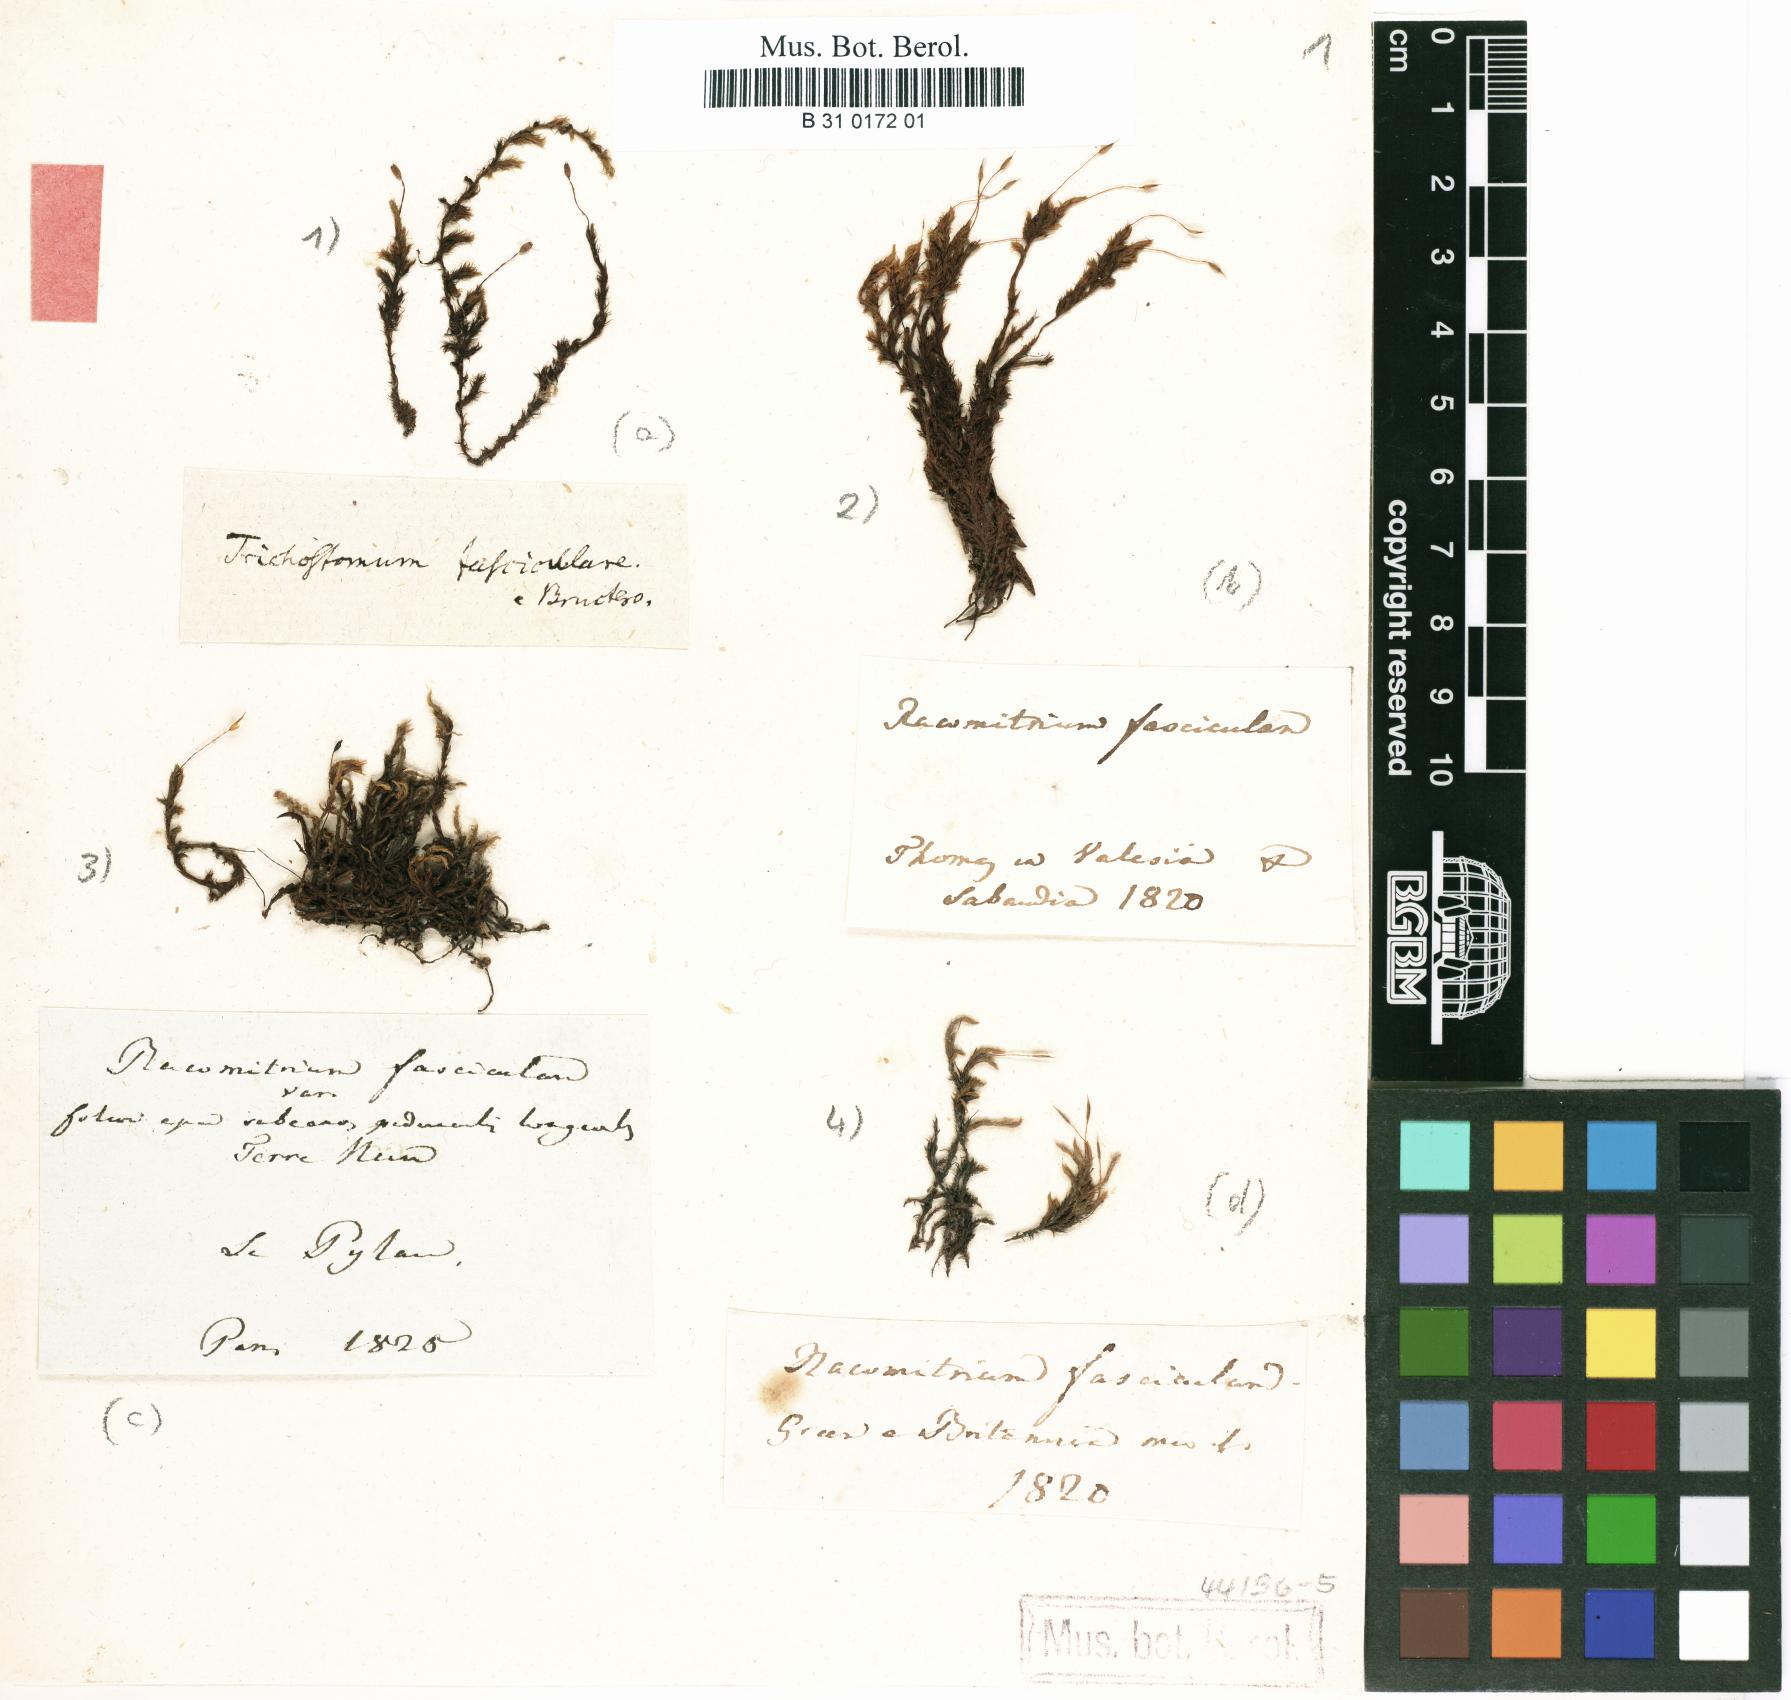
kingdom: Plantae
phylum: Bryophyta
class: Bryopsida
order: Grimmiales
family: Grimmiaceae
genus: Dilutineuron
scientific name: Dilutineuron fasciculare
